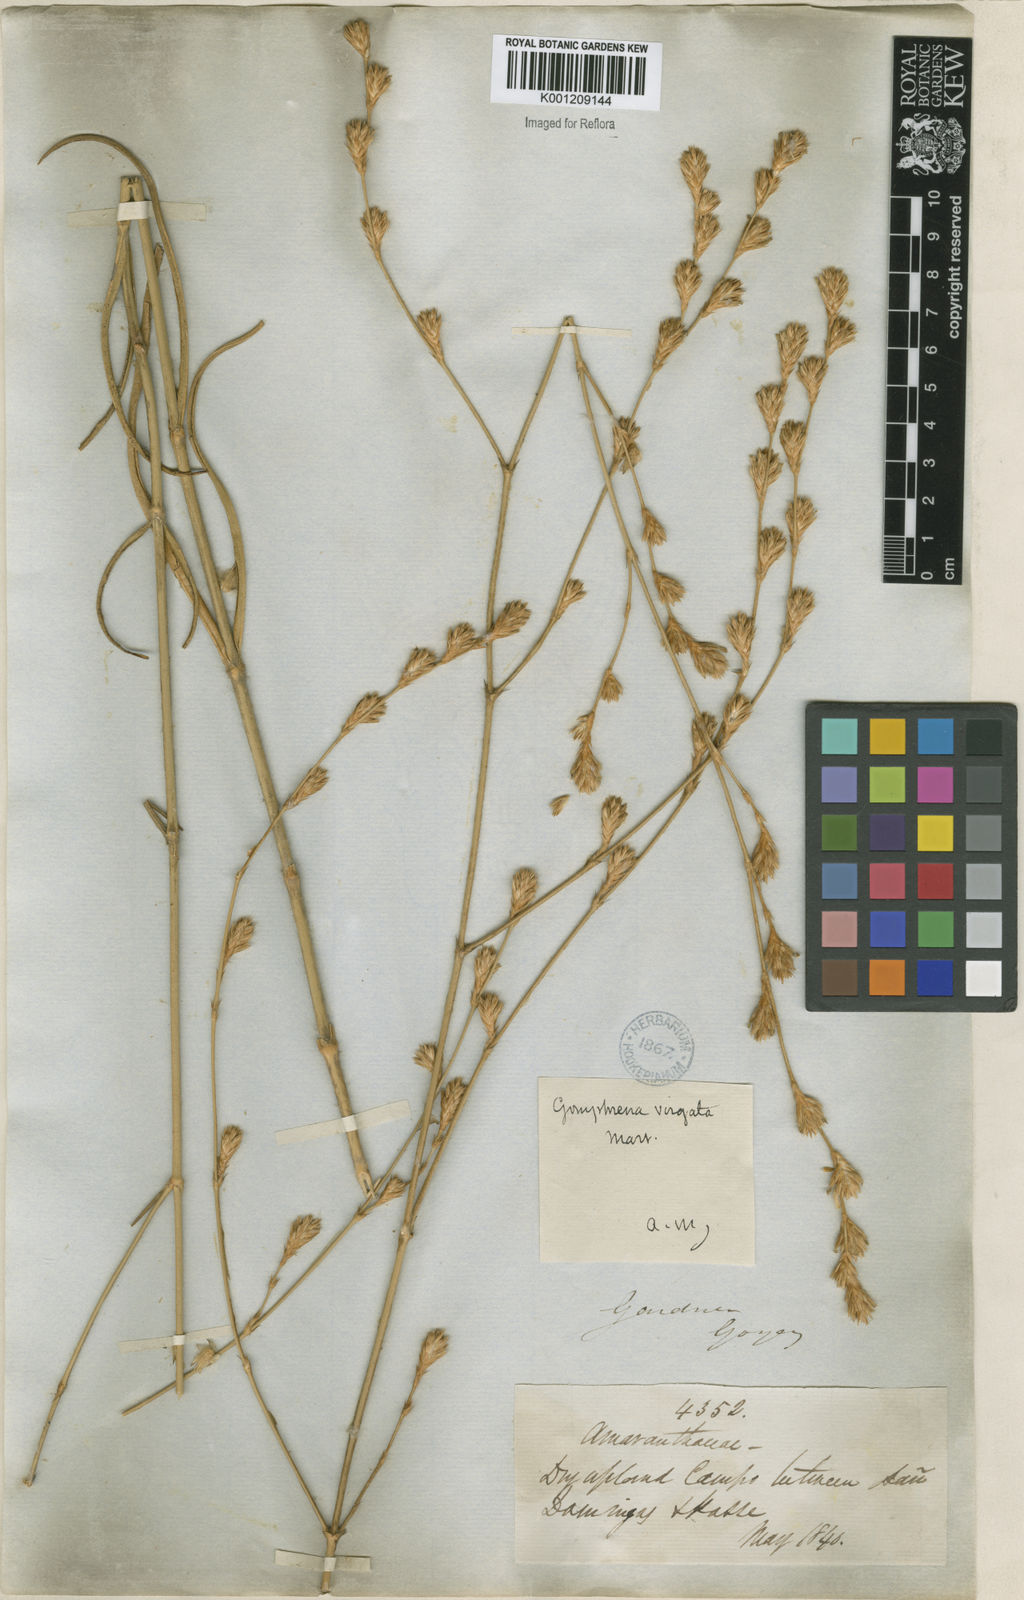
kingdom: Plantae
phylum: Tracheophyta
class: Magnoliopsida
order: Caryophyllales
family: Amaranthaceae
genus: Gomphrena
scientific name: Gomphrena virgata
